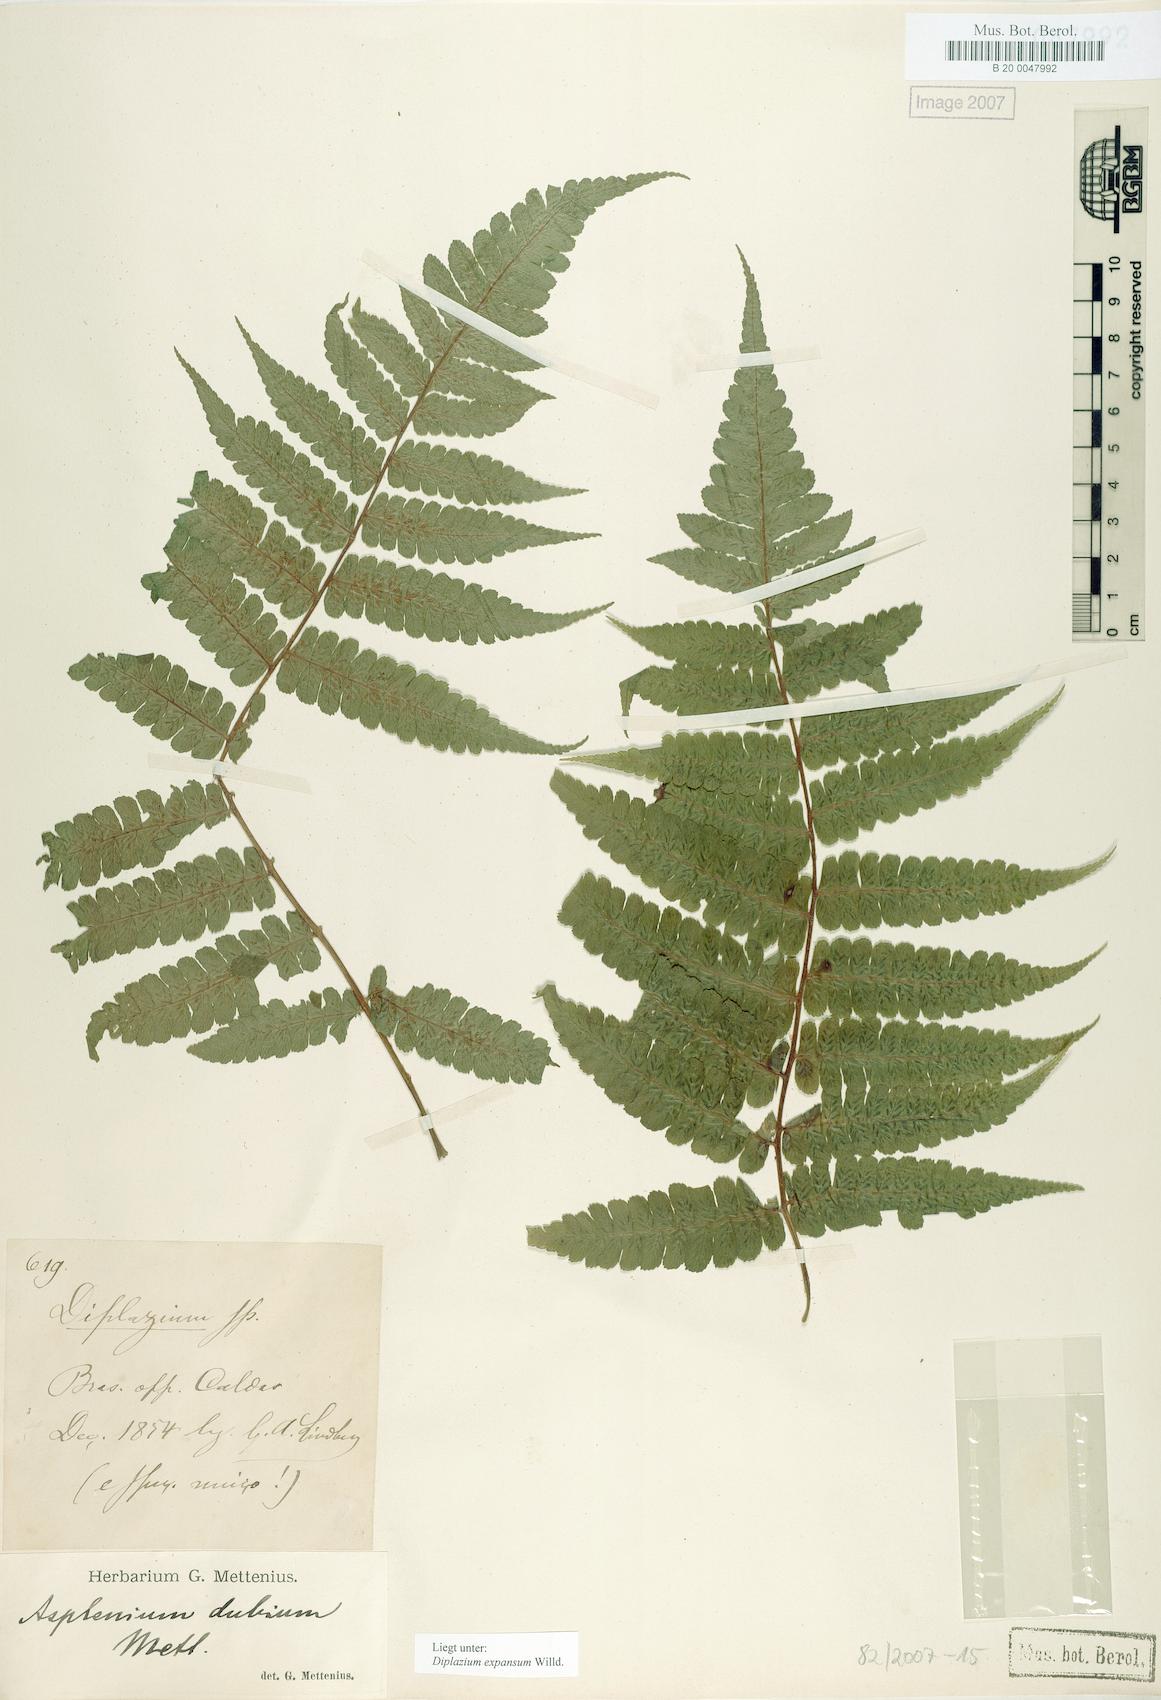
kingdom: Plantae
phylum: Tracheophyta
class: Polypodiopsida
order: Polypodiales
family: Athyriaceae
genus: Diplazium
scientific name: Diplazium expansum
